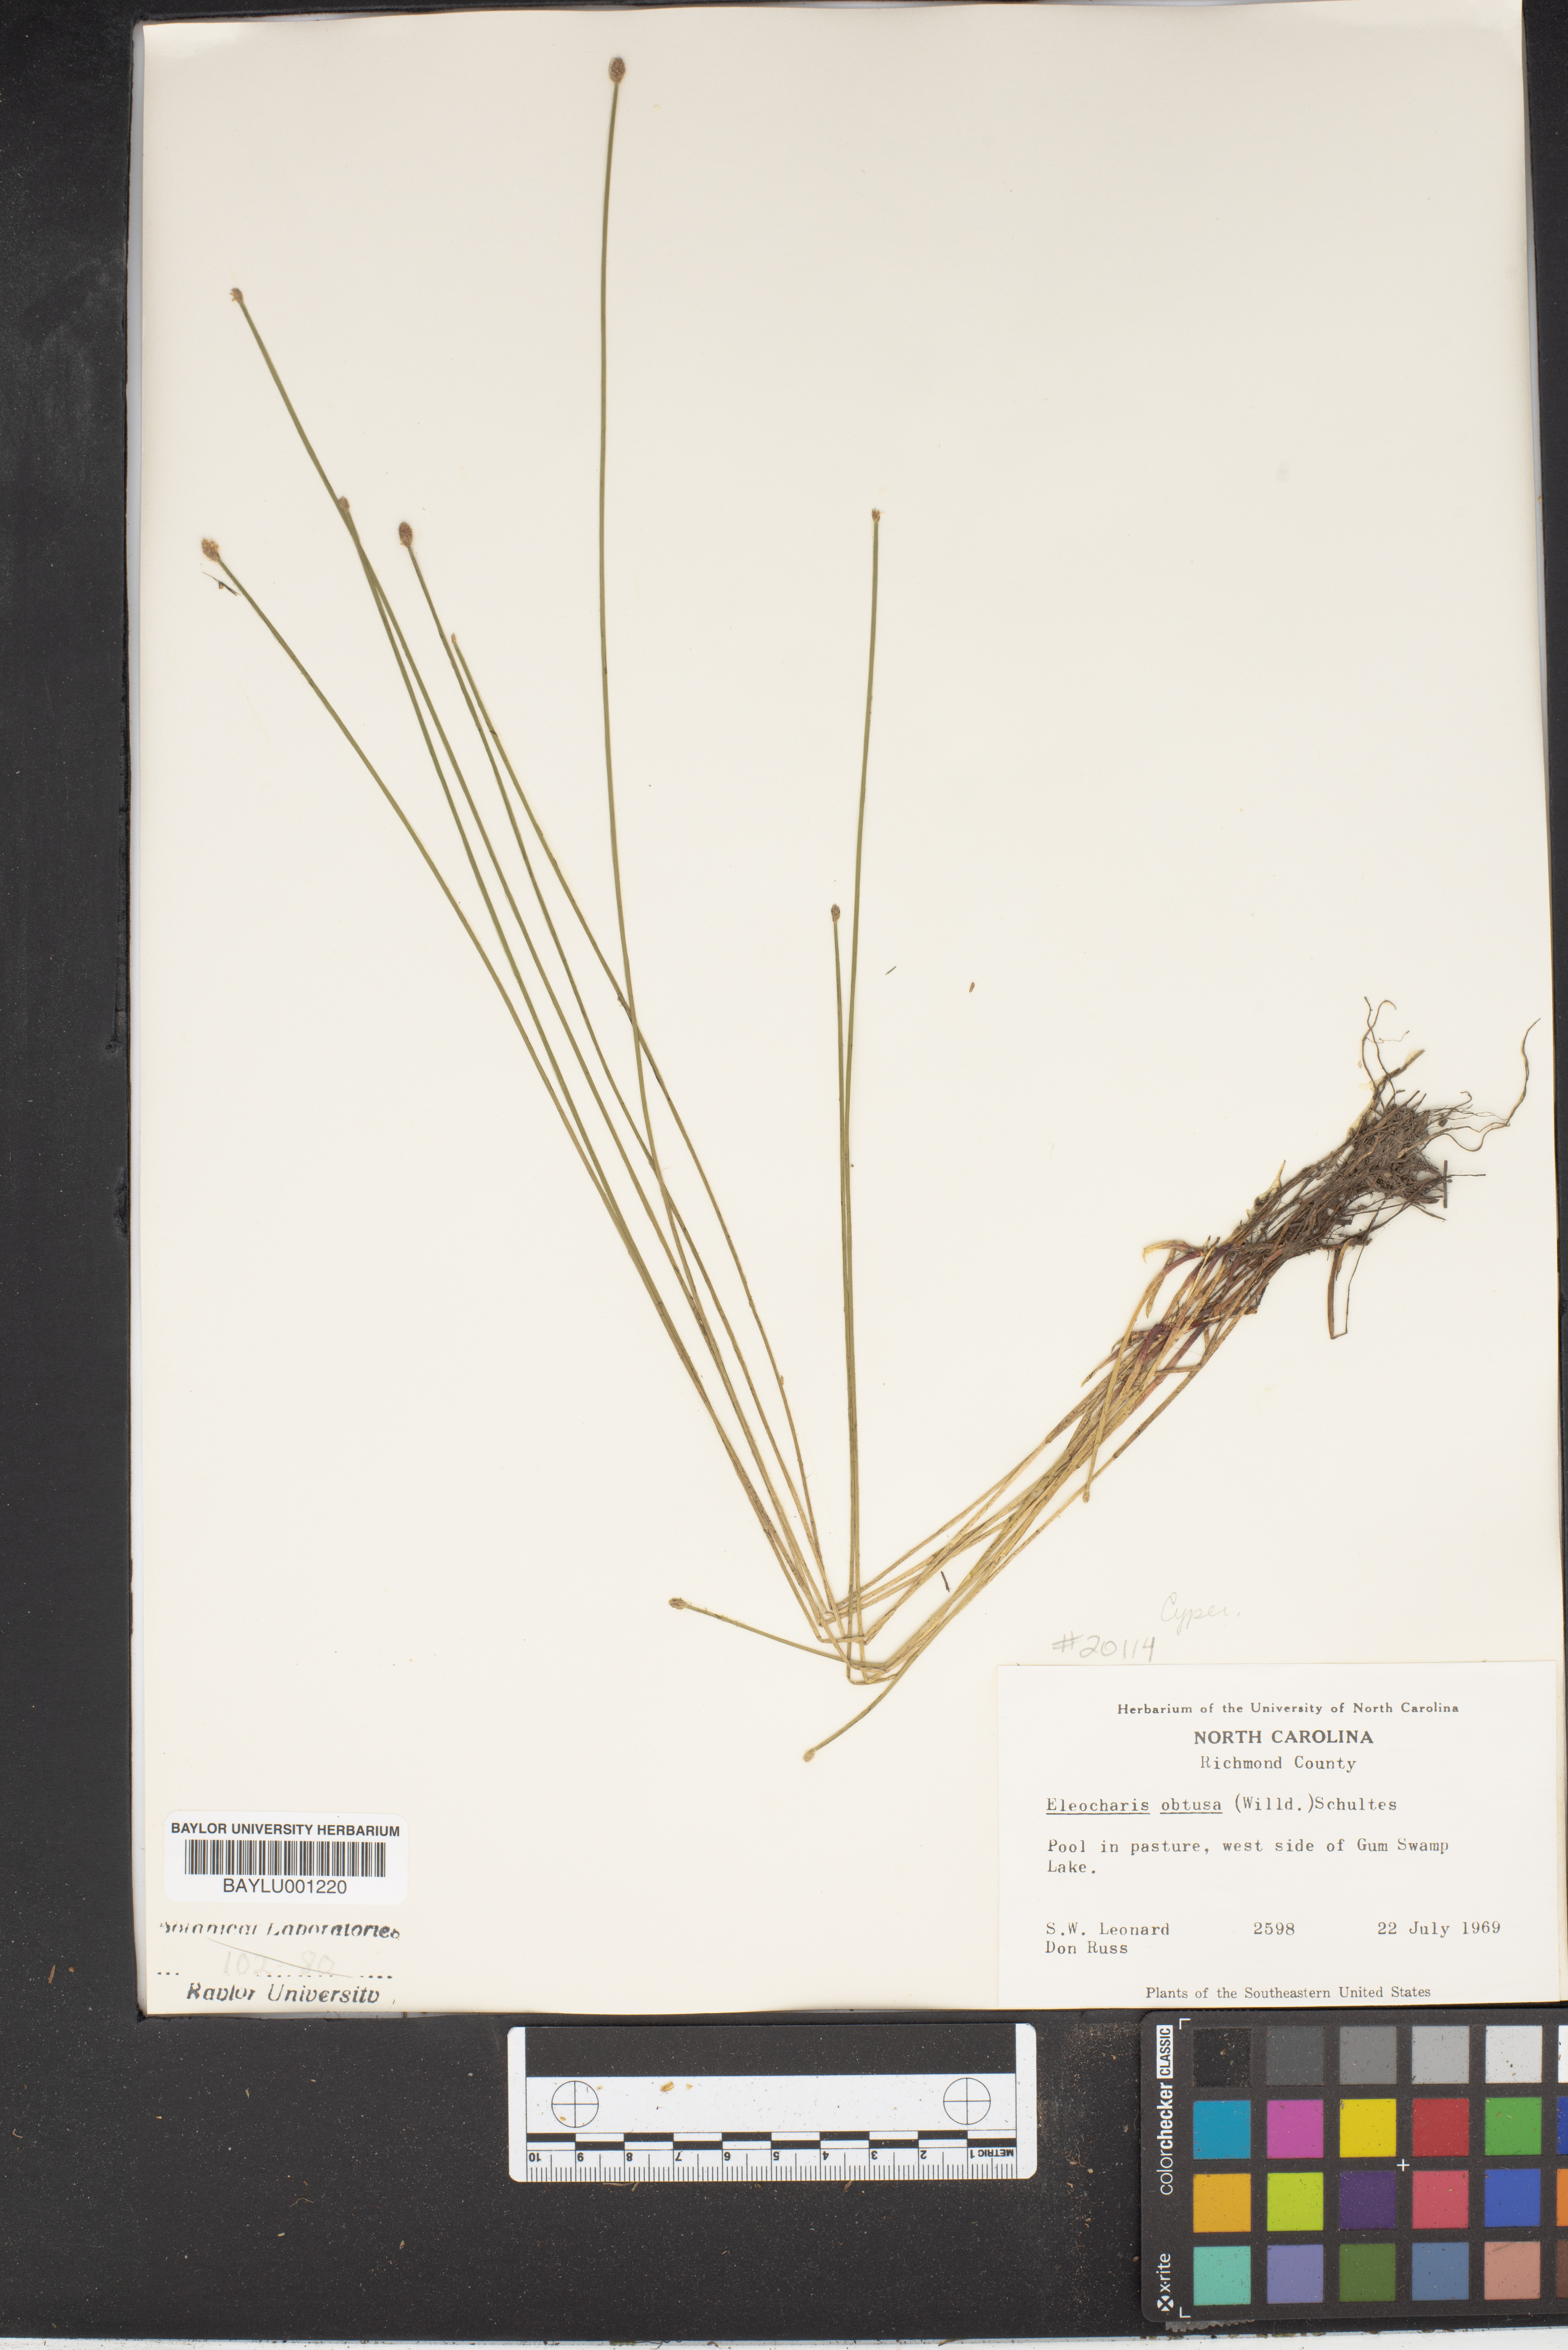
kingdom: Plantae
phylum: Tracheophyta
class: Liliopsida
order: Poales
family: Cyperaceae
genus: Eleocharis
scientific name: Eleocharis obtusa
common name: Blunt spikerush
